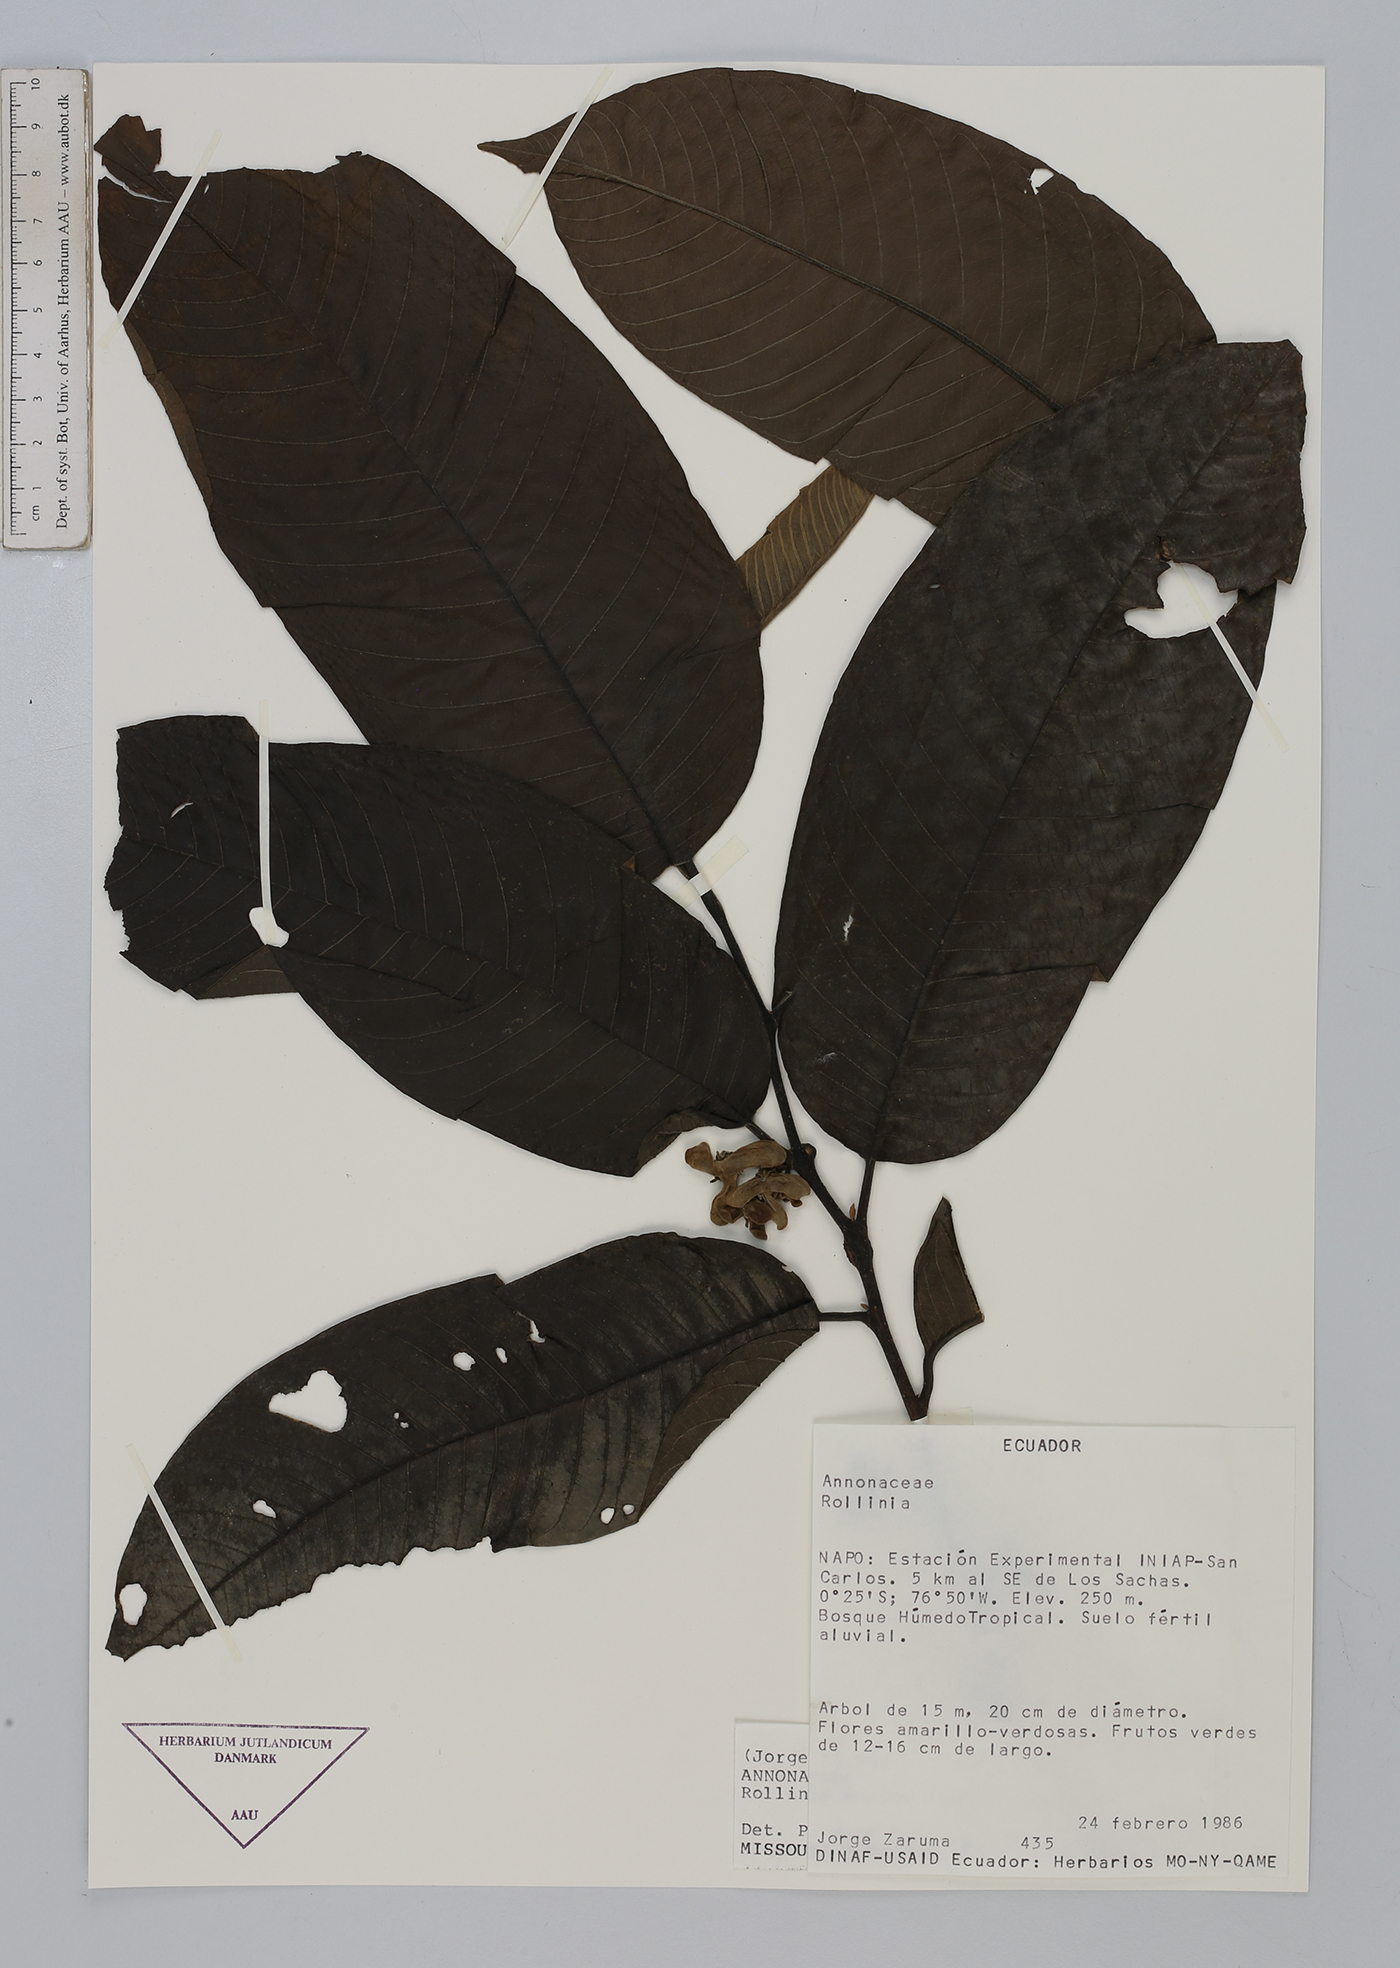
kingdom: Plantae
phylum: Tracheophyta
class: Magnoliopsida
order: Magnoliales
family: Annonaceae
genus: Annona
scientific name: Annona mucosa
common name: Sugar apple
